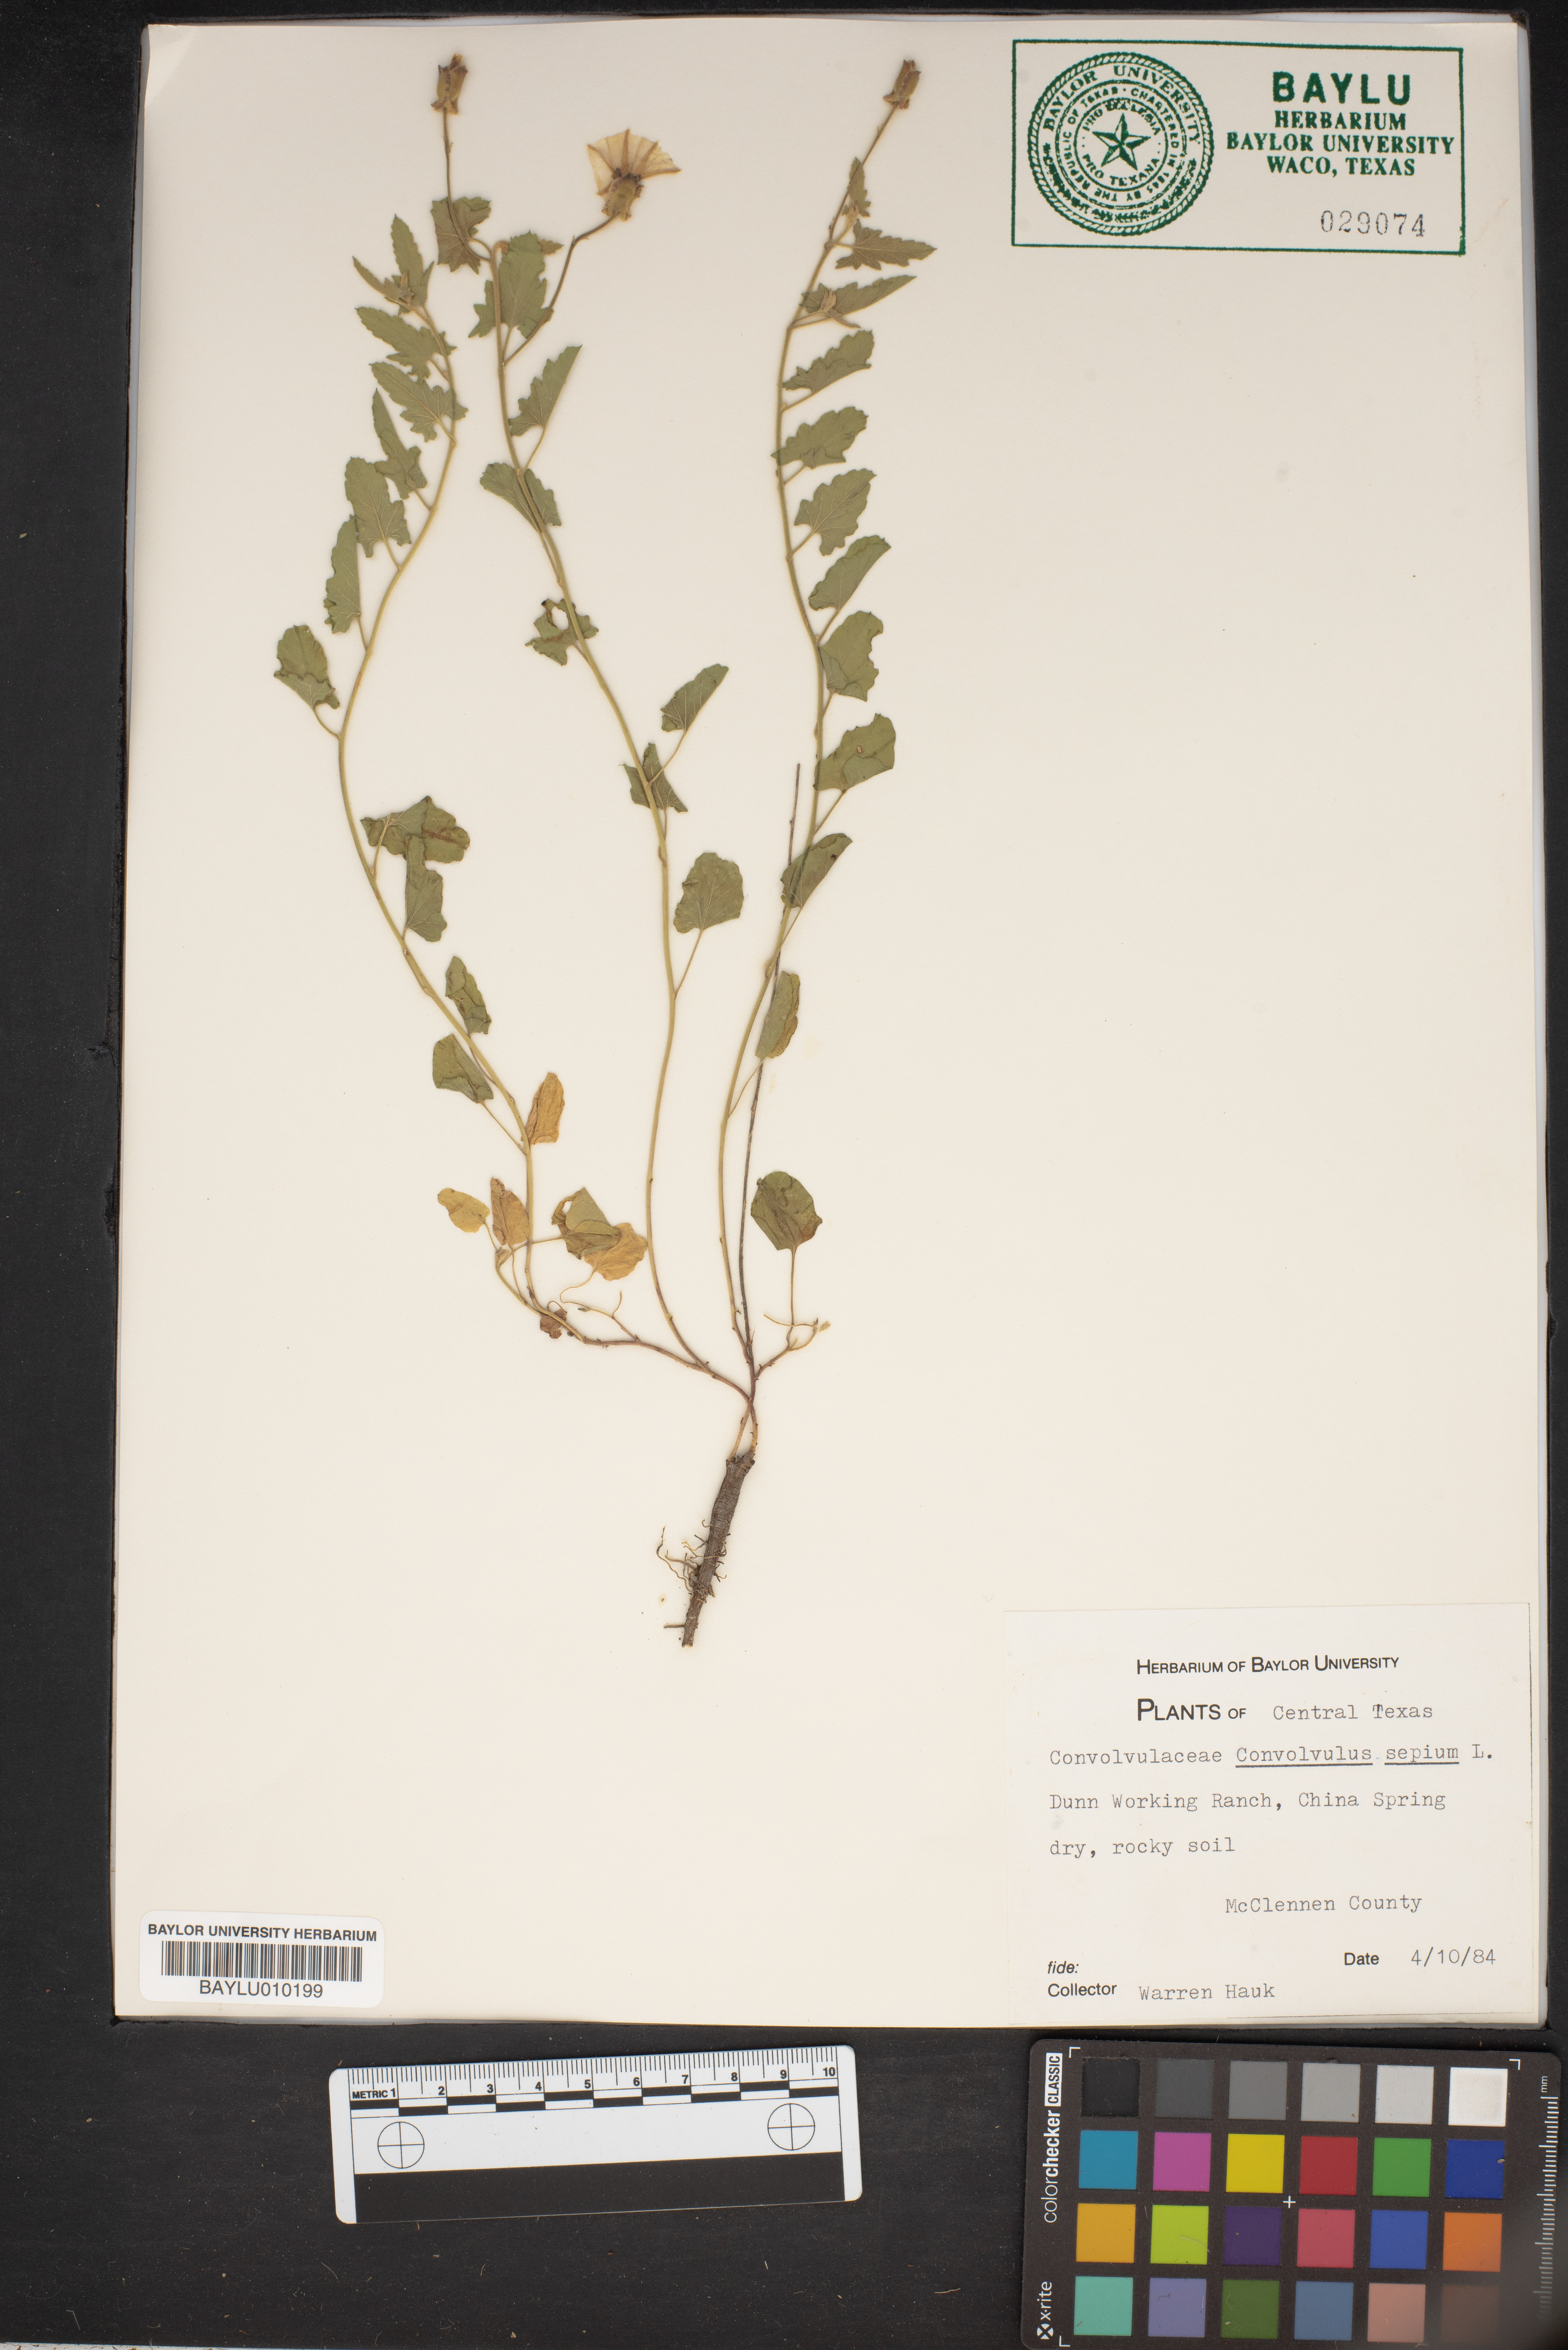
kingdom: Plantae
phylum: Tracheophyta
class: Magnoliopsida
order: Solanales
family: Convolvulaceae
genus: Convolvulus
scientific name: Convolvulus sepium
